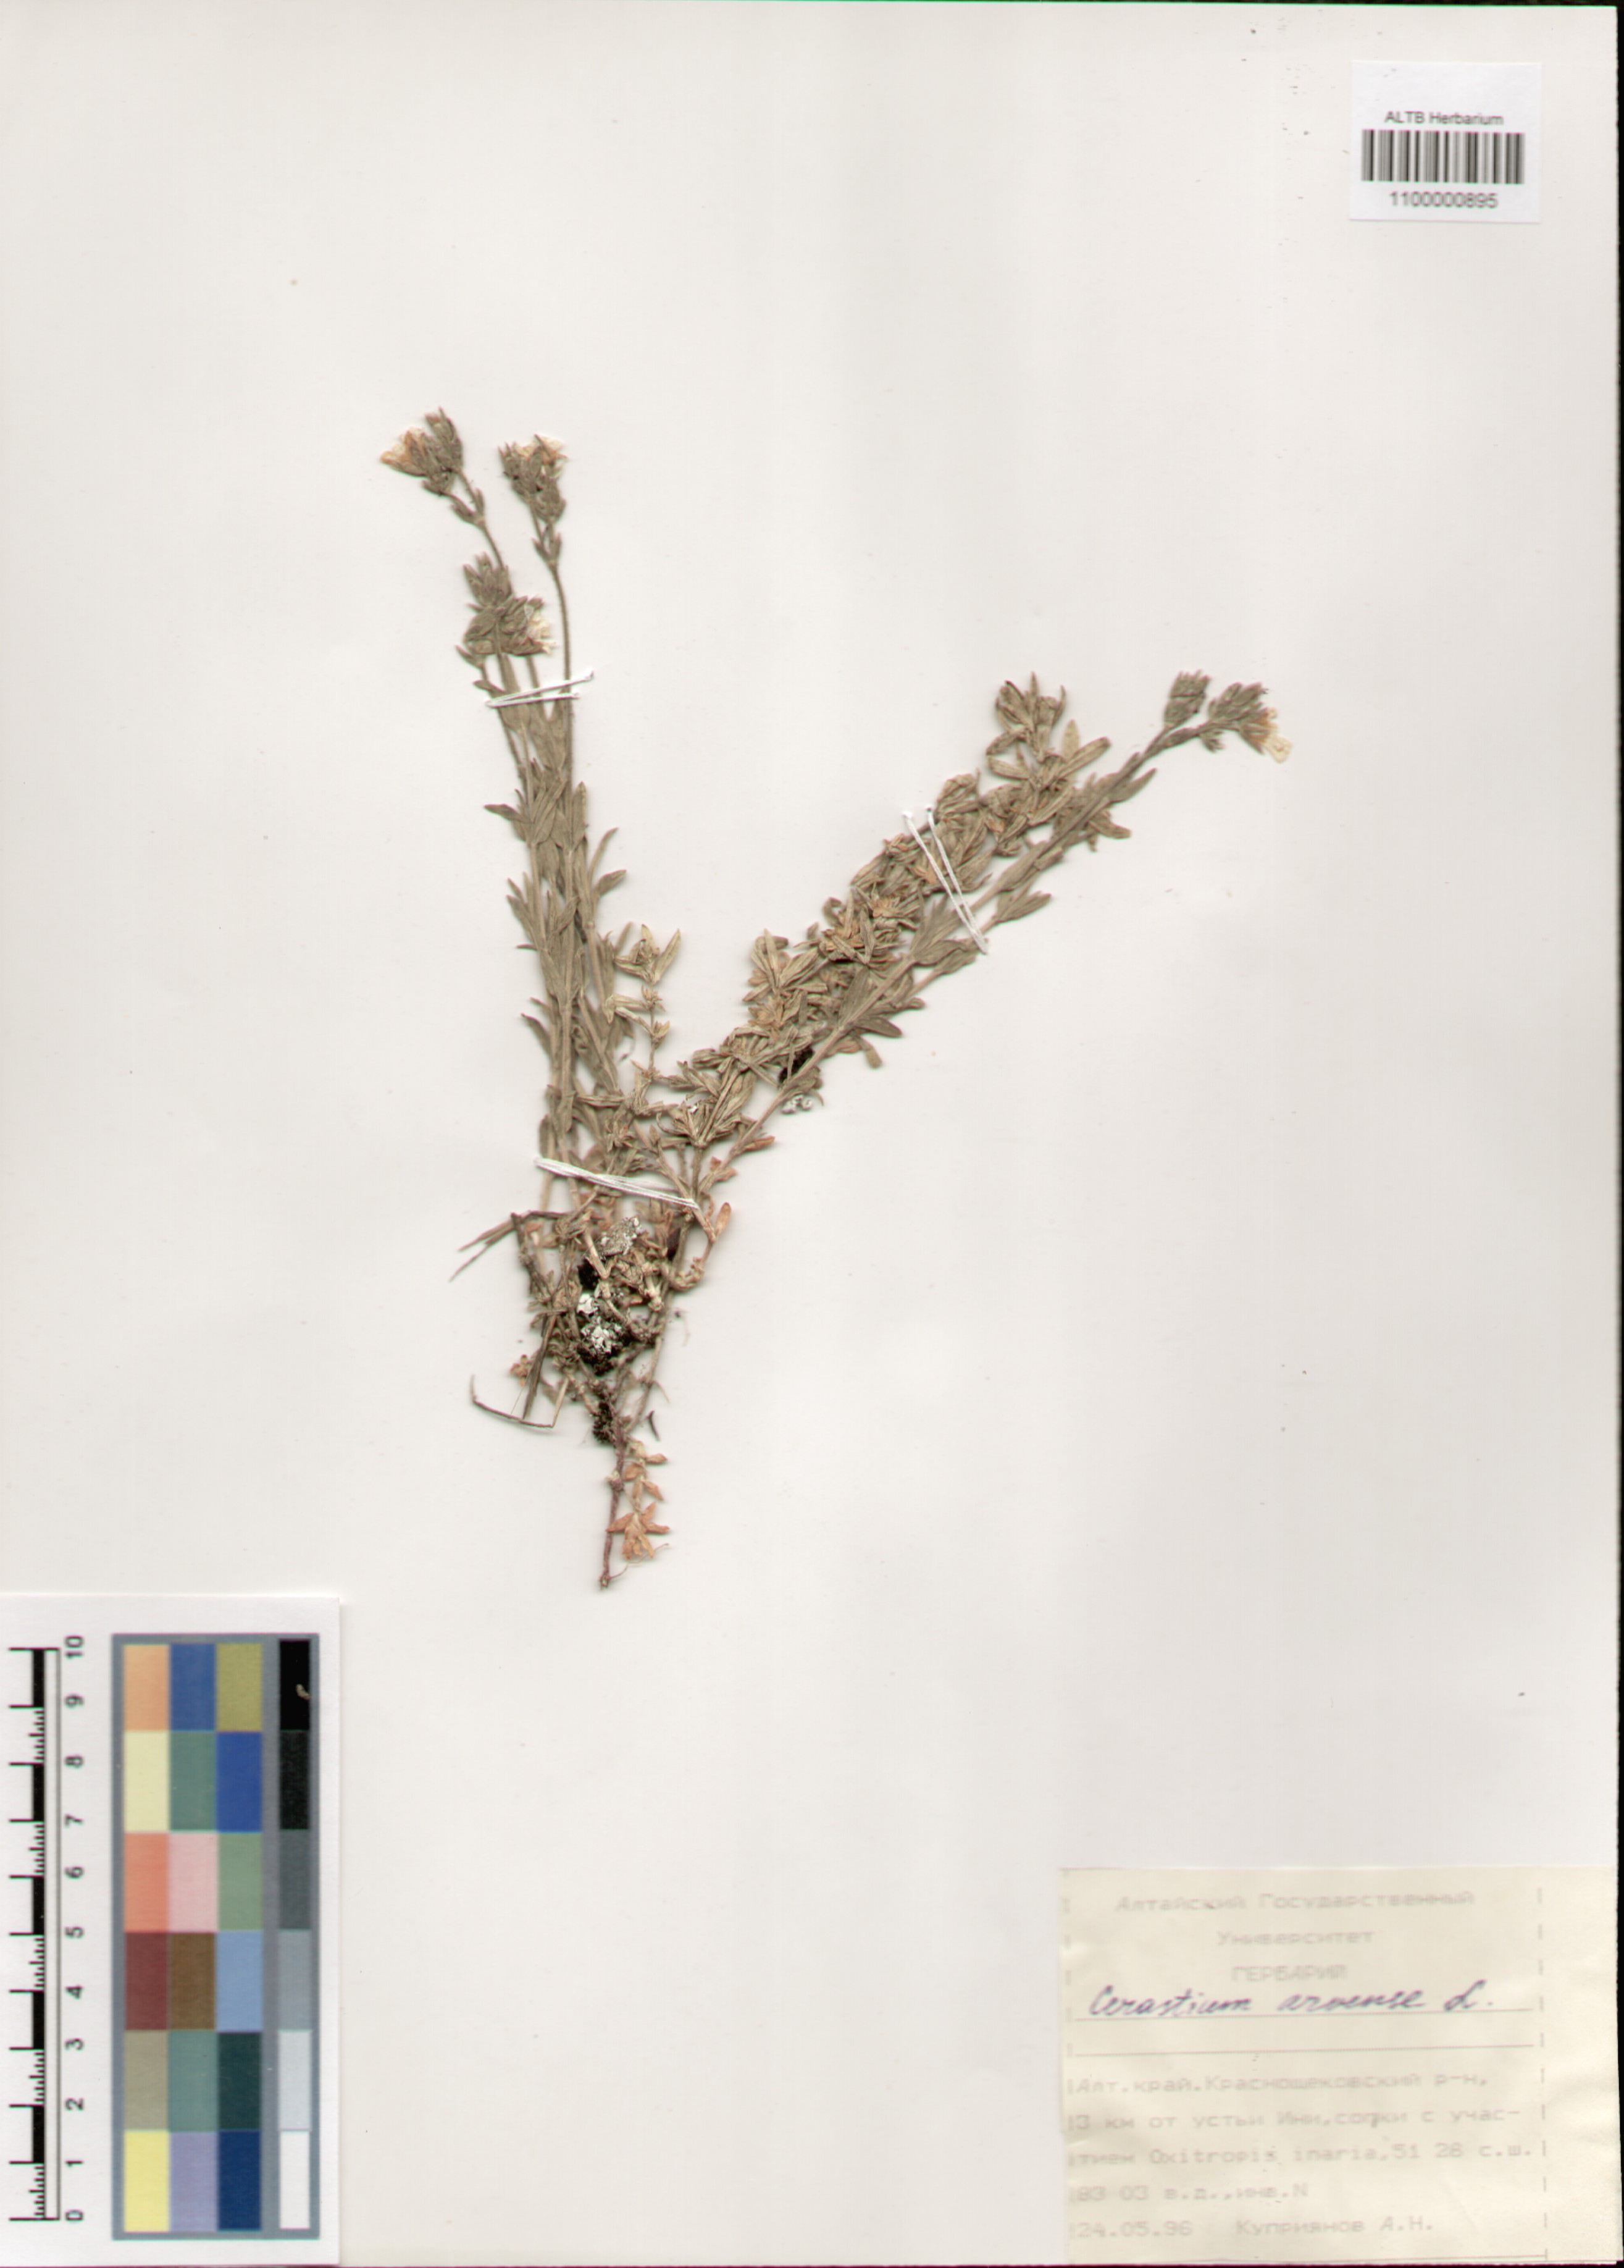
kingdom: Plantae
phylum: Tracheophyta
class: Magnoliopsida
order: Caryophyllales
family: Caryophyllaceae
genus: Cerastium
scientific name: Cerastium arvense
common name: Field mouse-ear
